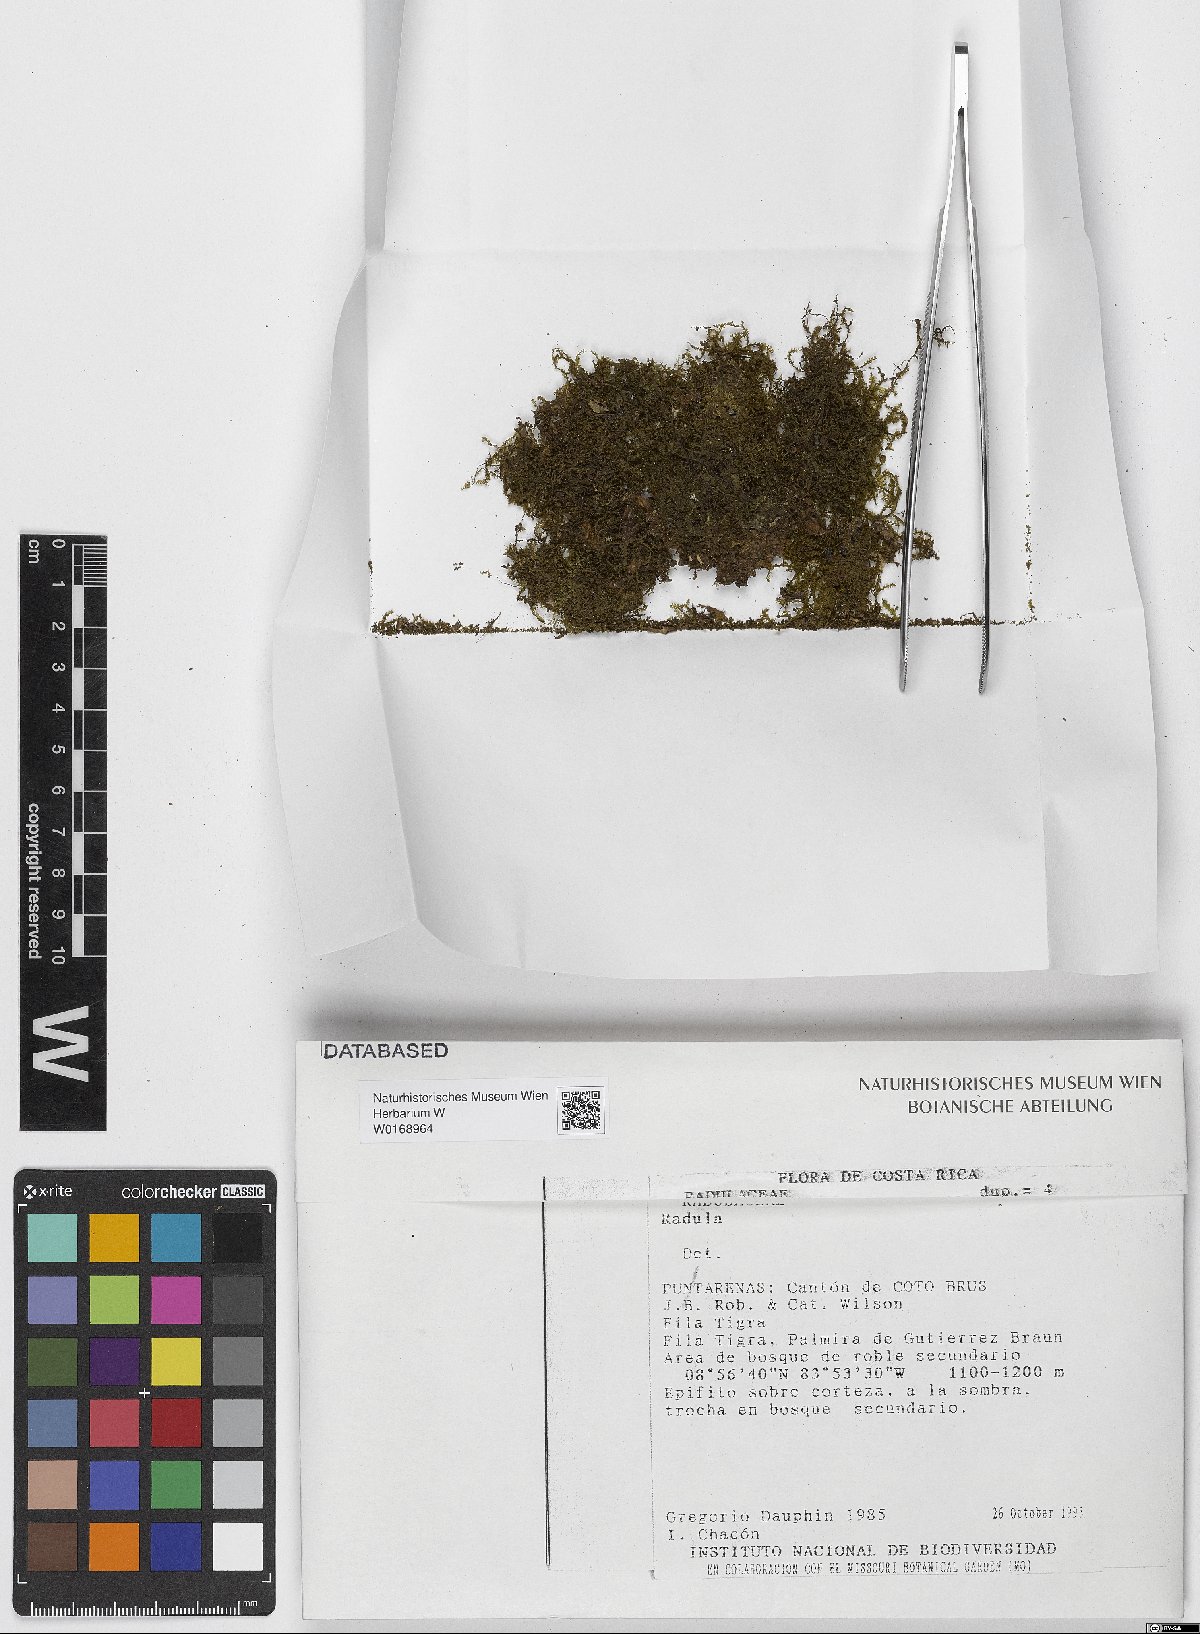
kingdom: Plantae
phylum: Marchantiophyta
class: Jungermanniopsida
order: Porellales
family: Radulaceae
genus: Radula
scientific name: Radula
